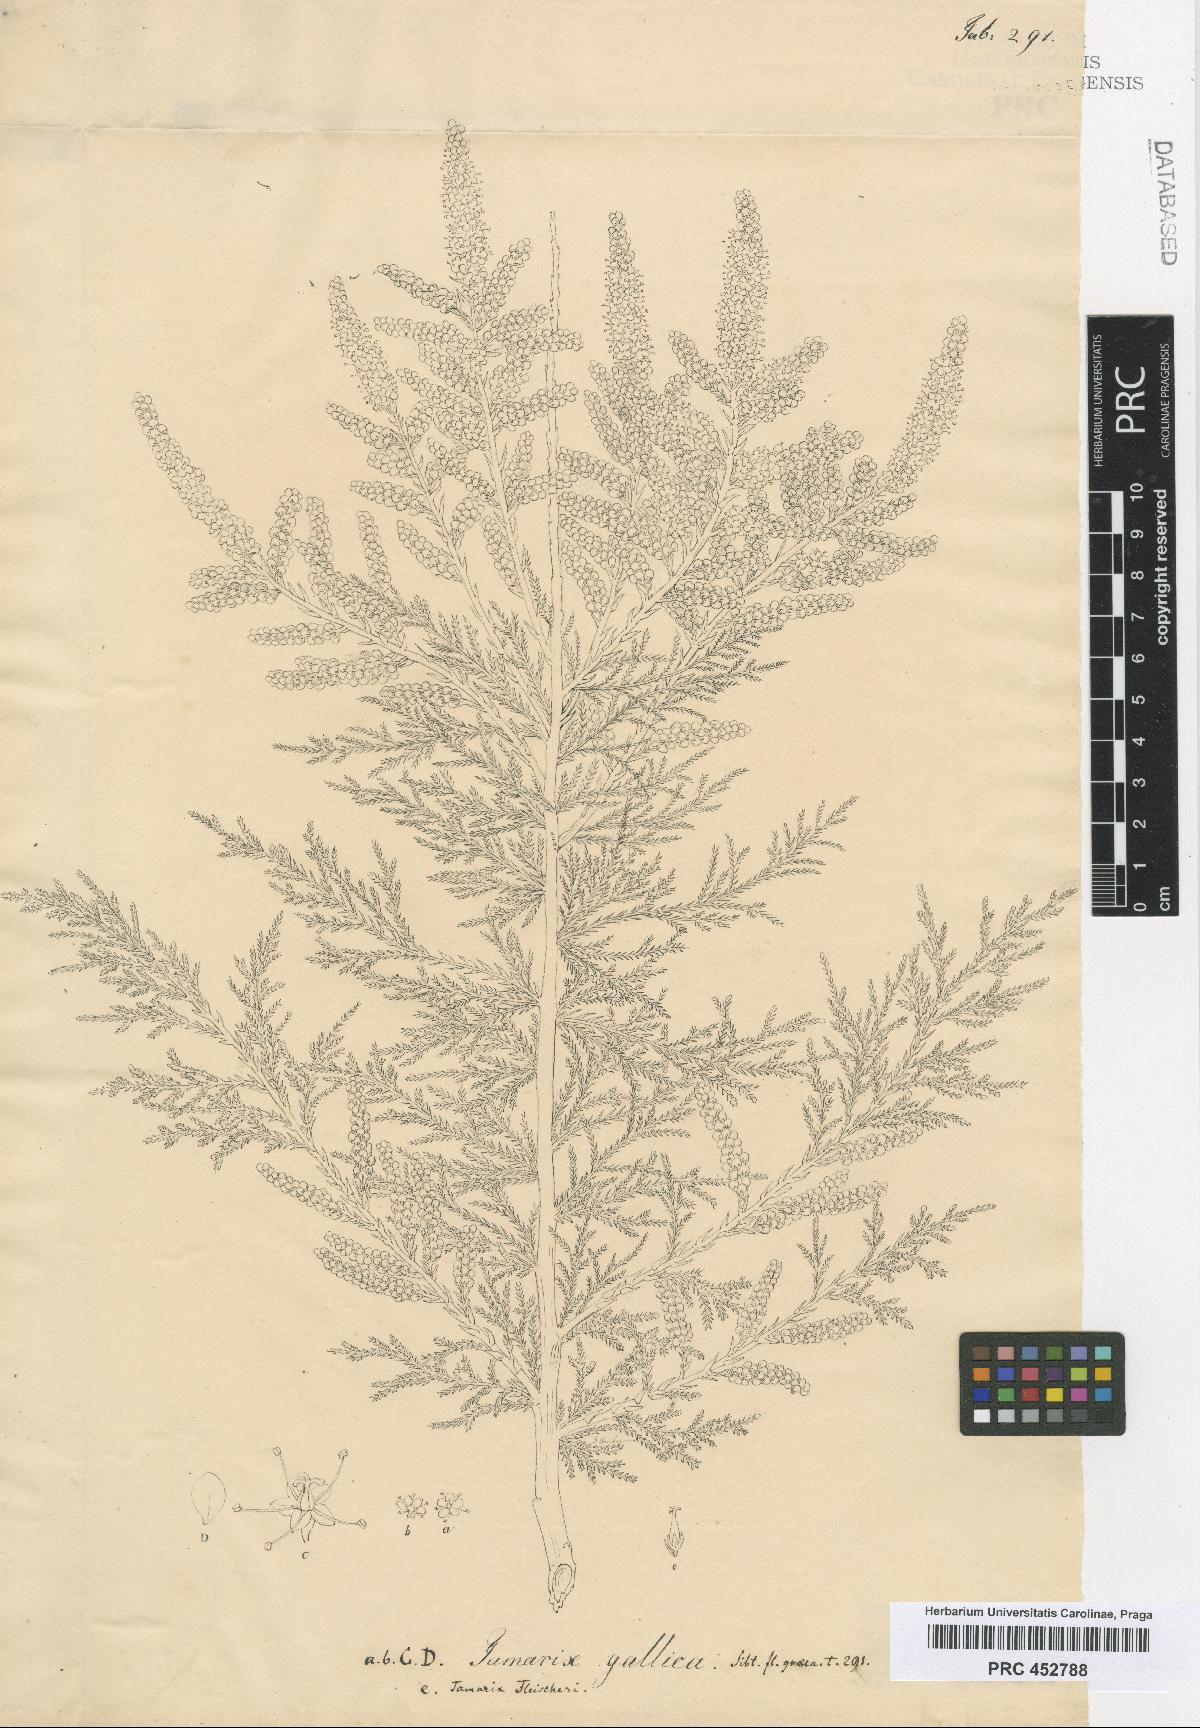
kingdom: Plantae
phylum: Tracheophyta
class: Magnoliopsida
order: Caryophyllales
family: Tamaricaceae
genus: Tamarix
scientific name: Tamarix smyrnensis
